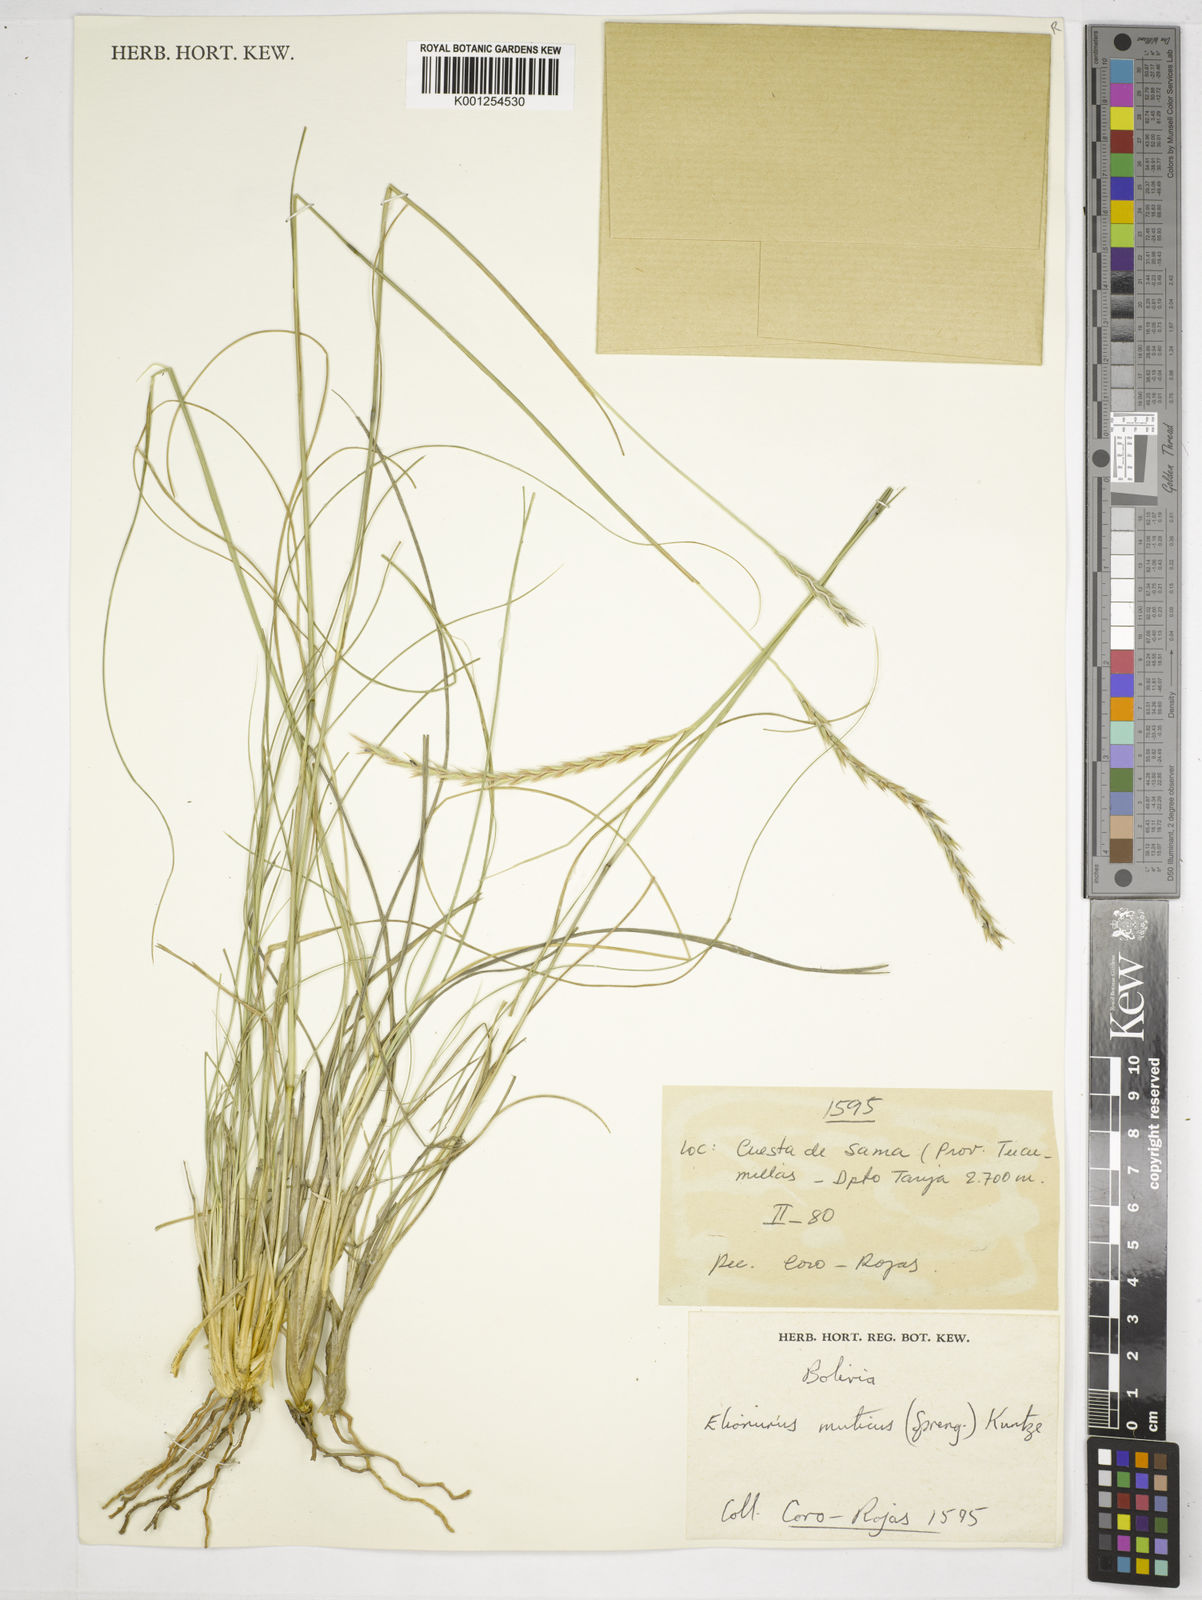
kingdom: Plantae
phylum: Tracheophyta
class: Liliopsida
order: Poales
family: Poaceae
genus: Elionurus
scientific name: Elionurus muticus
